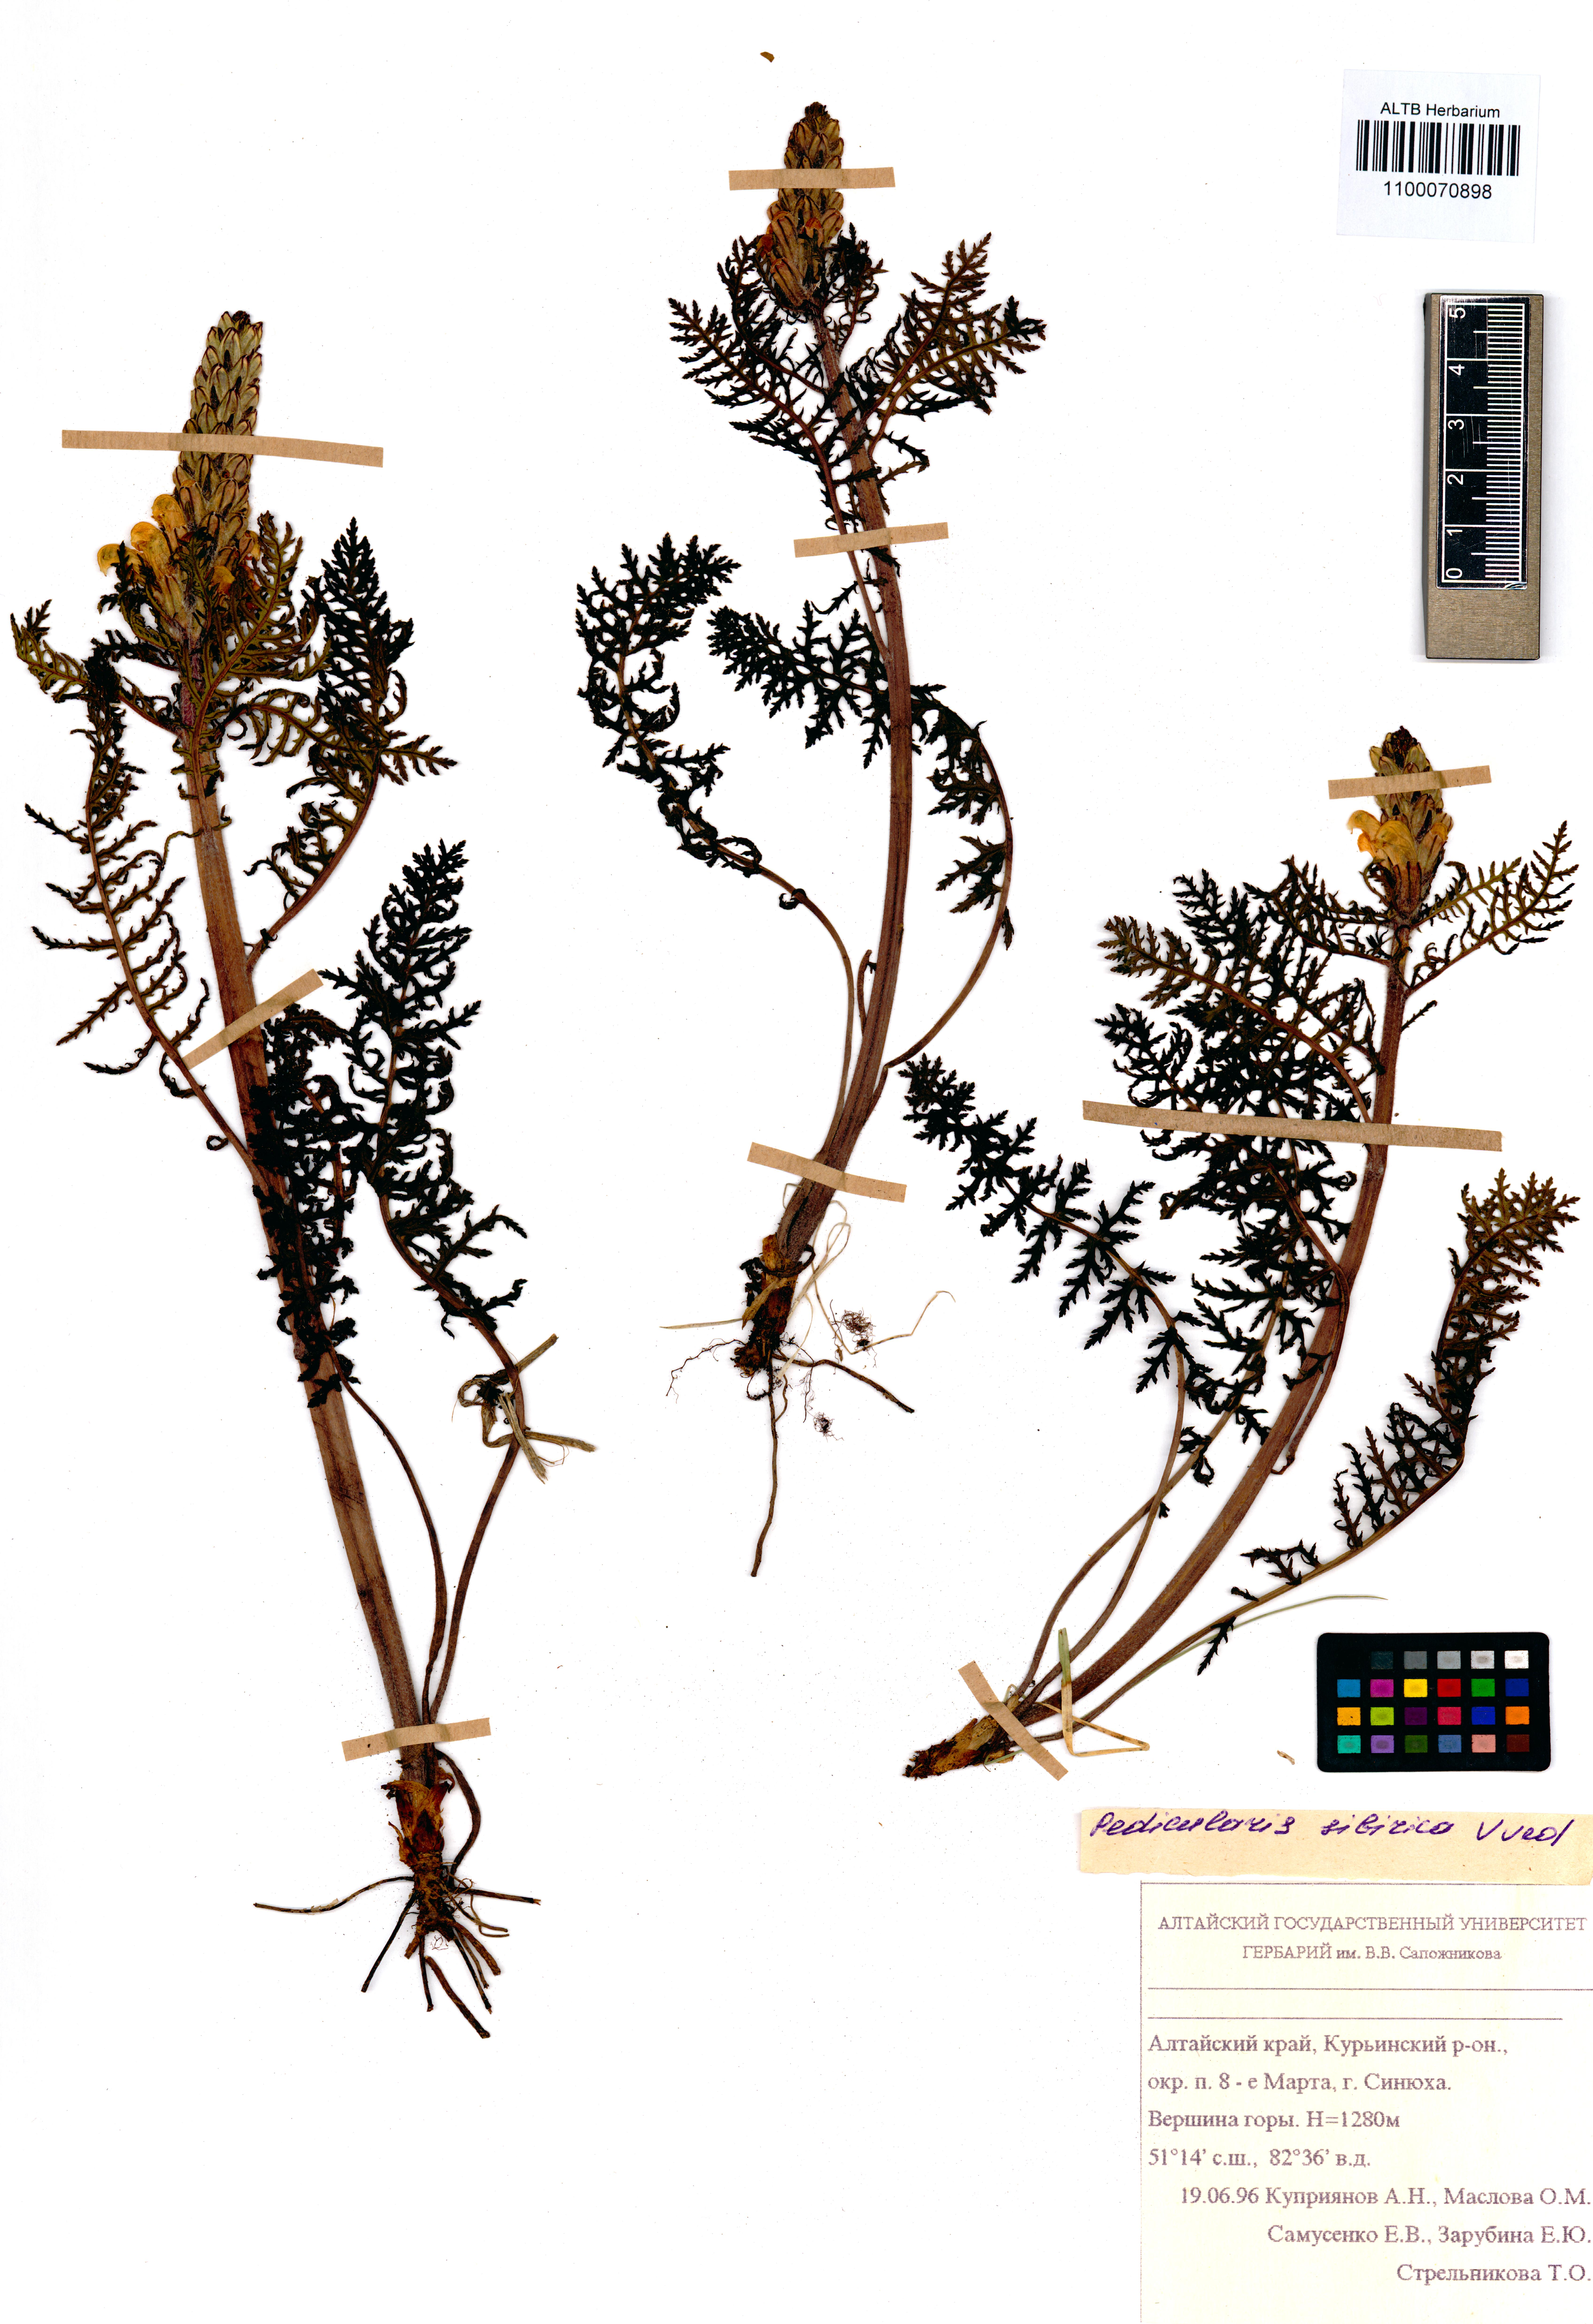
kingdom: Plantae
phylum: Tracheophyta
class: Magnoliopsida
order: Lamiales
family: Orobanchaceae
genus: Pedicularis
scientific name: Pedicularis cenisia
